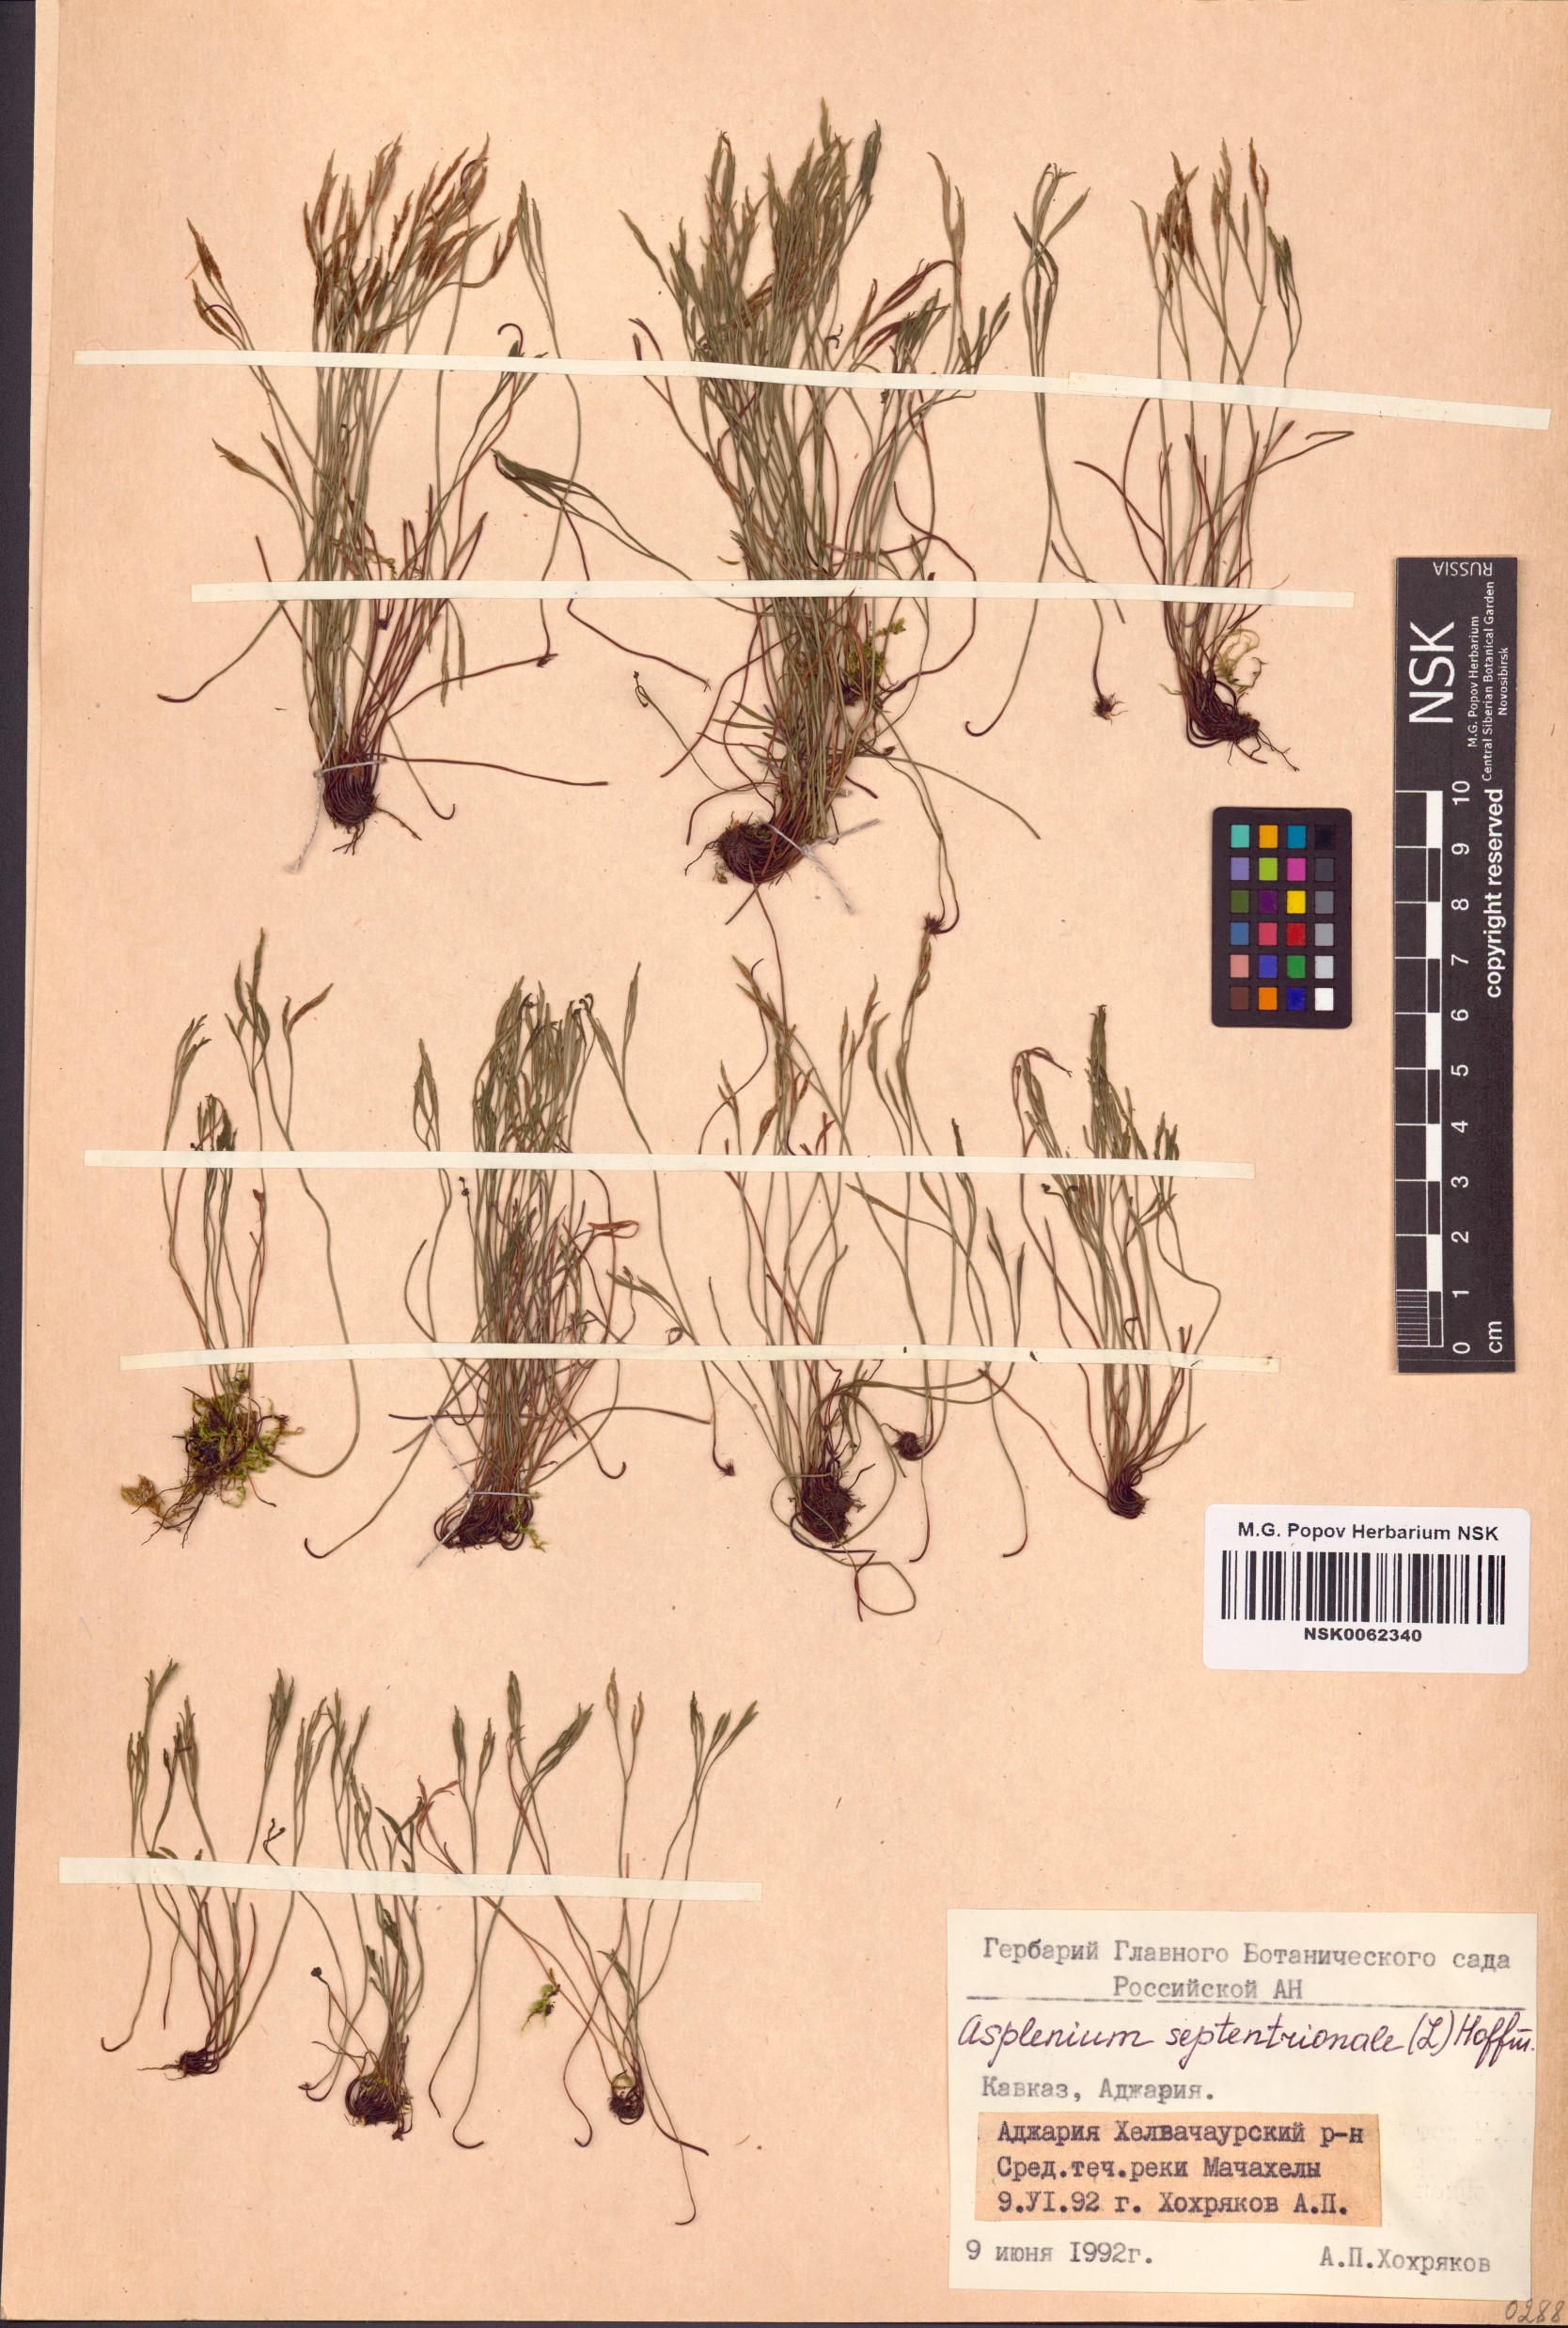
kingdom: Plantae
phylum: Tracheophyta
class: Polypodiopsida
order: Polypodiales
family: Aspleniaceae
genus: Asplenium
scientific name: Asplenium septentrionale
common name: Forked spleenwort
